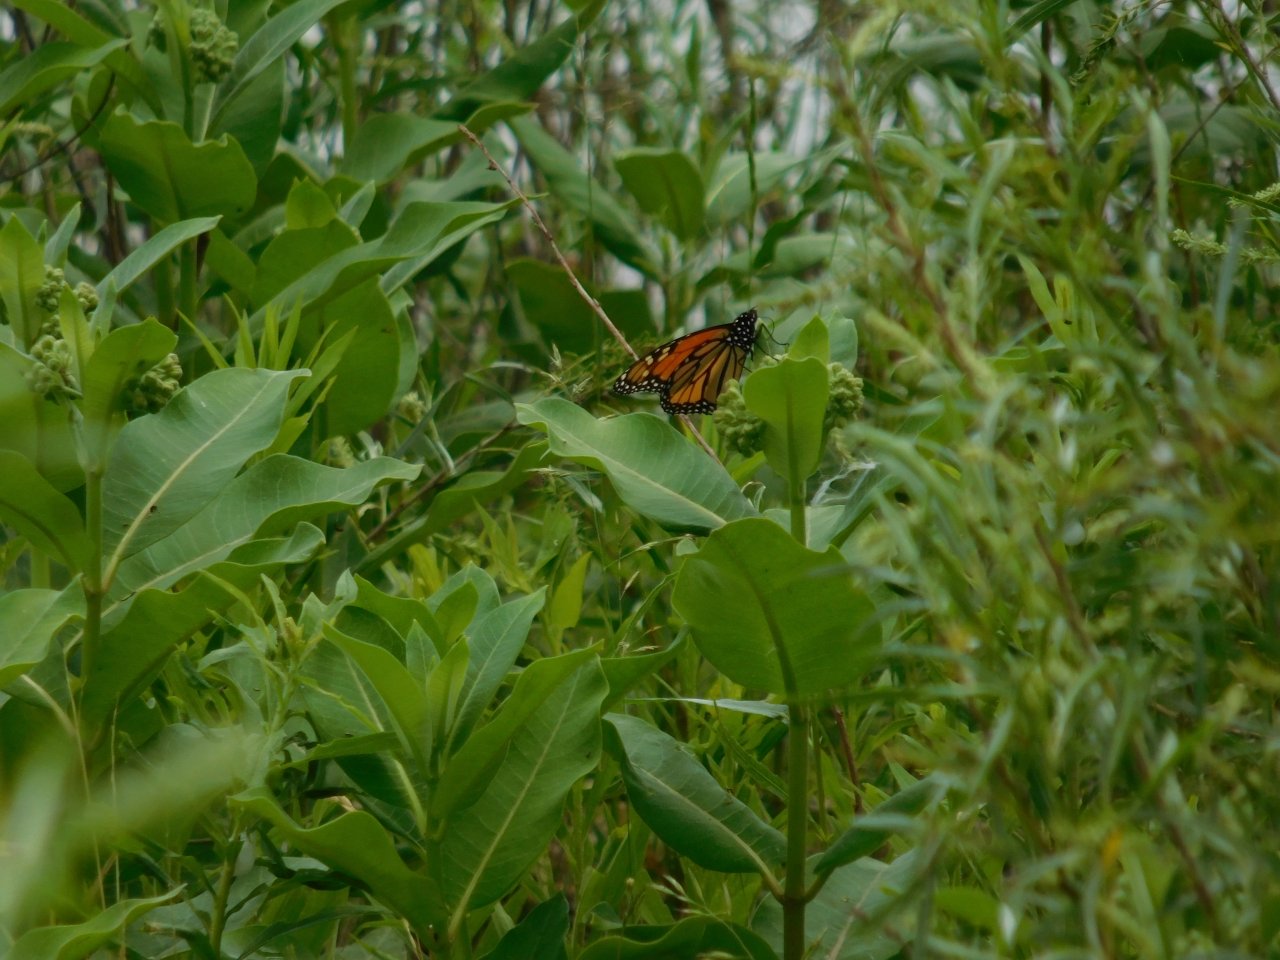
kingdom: Animalia
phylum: Arthropoda
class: Insecta
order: Lepidoptera
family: Nymphalidae
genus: Danaus
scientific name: Danaus plexippus
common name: Monarch
